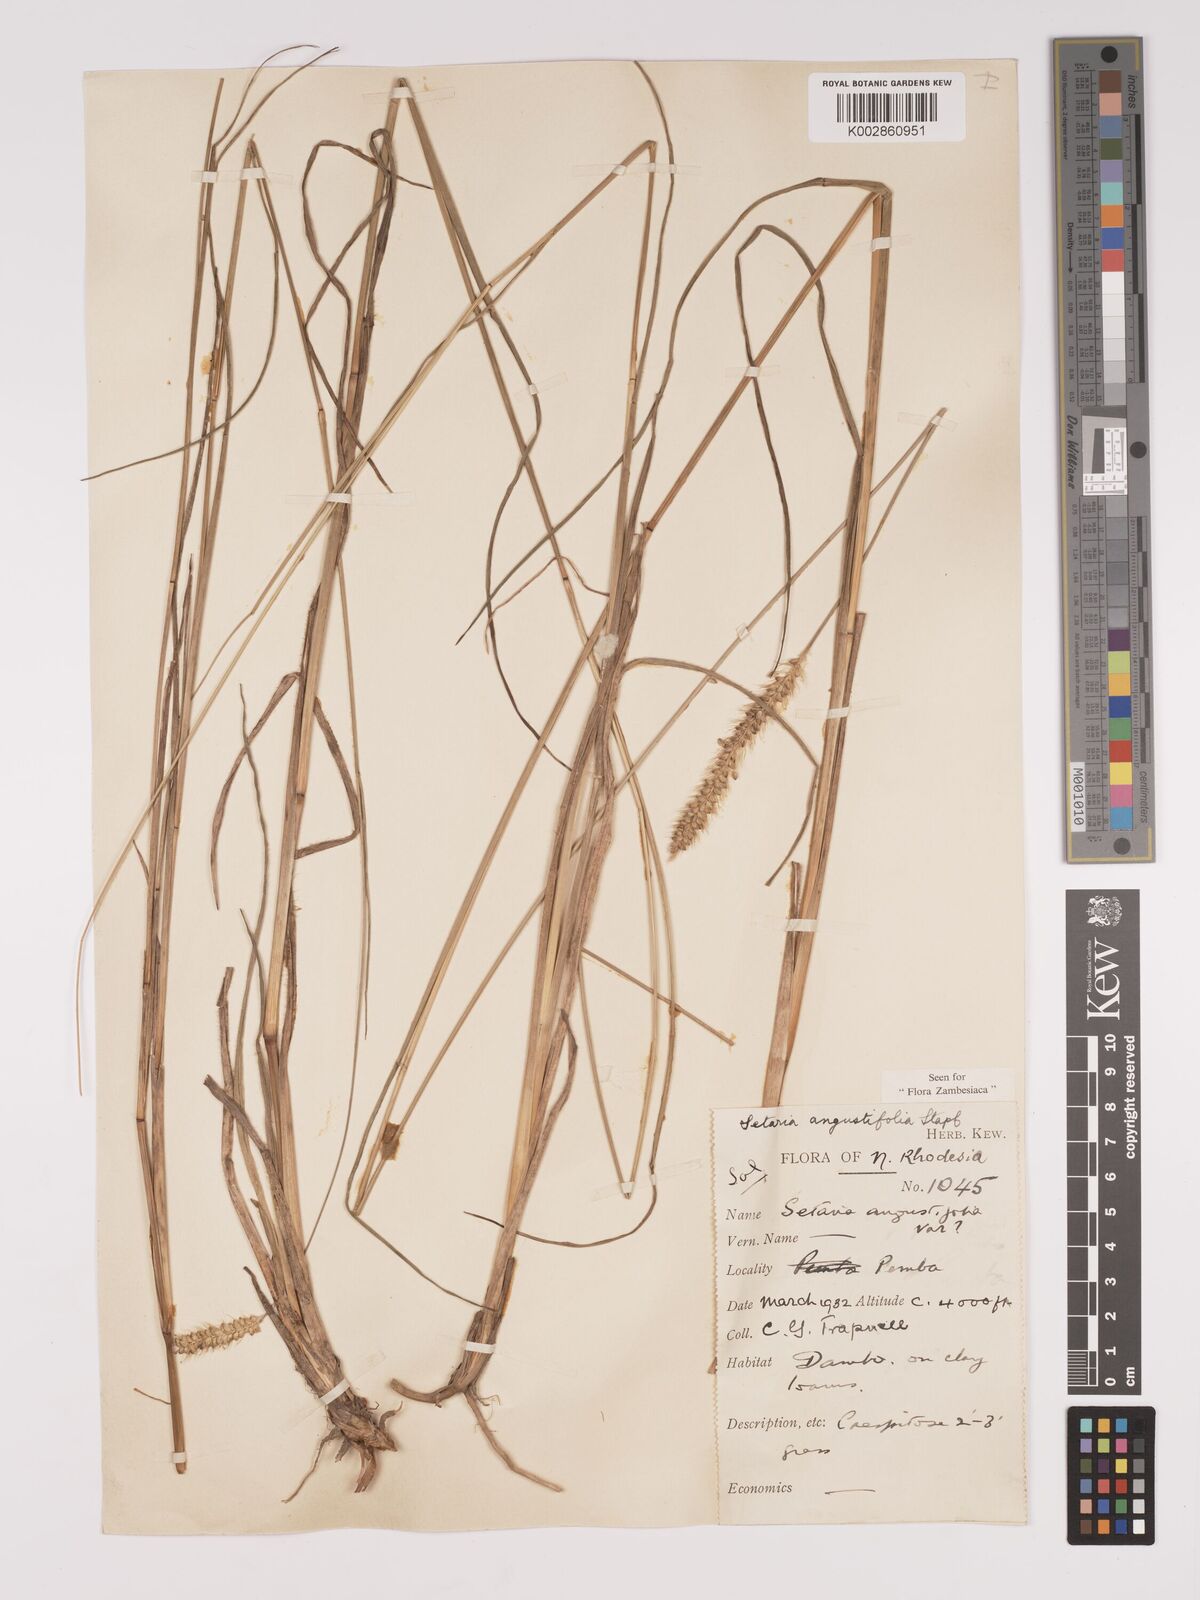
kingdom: Plantae
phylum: Tracheophyta
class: Liliopsida
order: Poales
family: Poaceae
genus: Setaria
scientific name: Setaria
